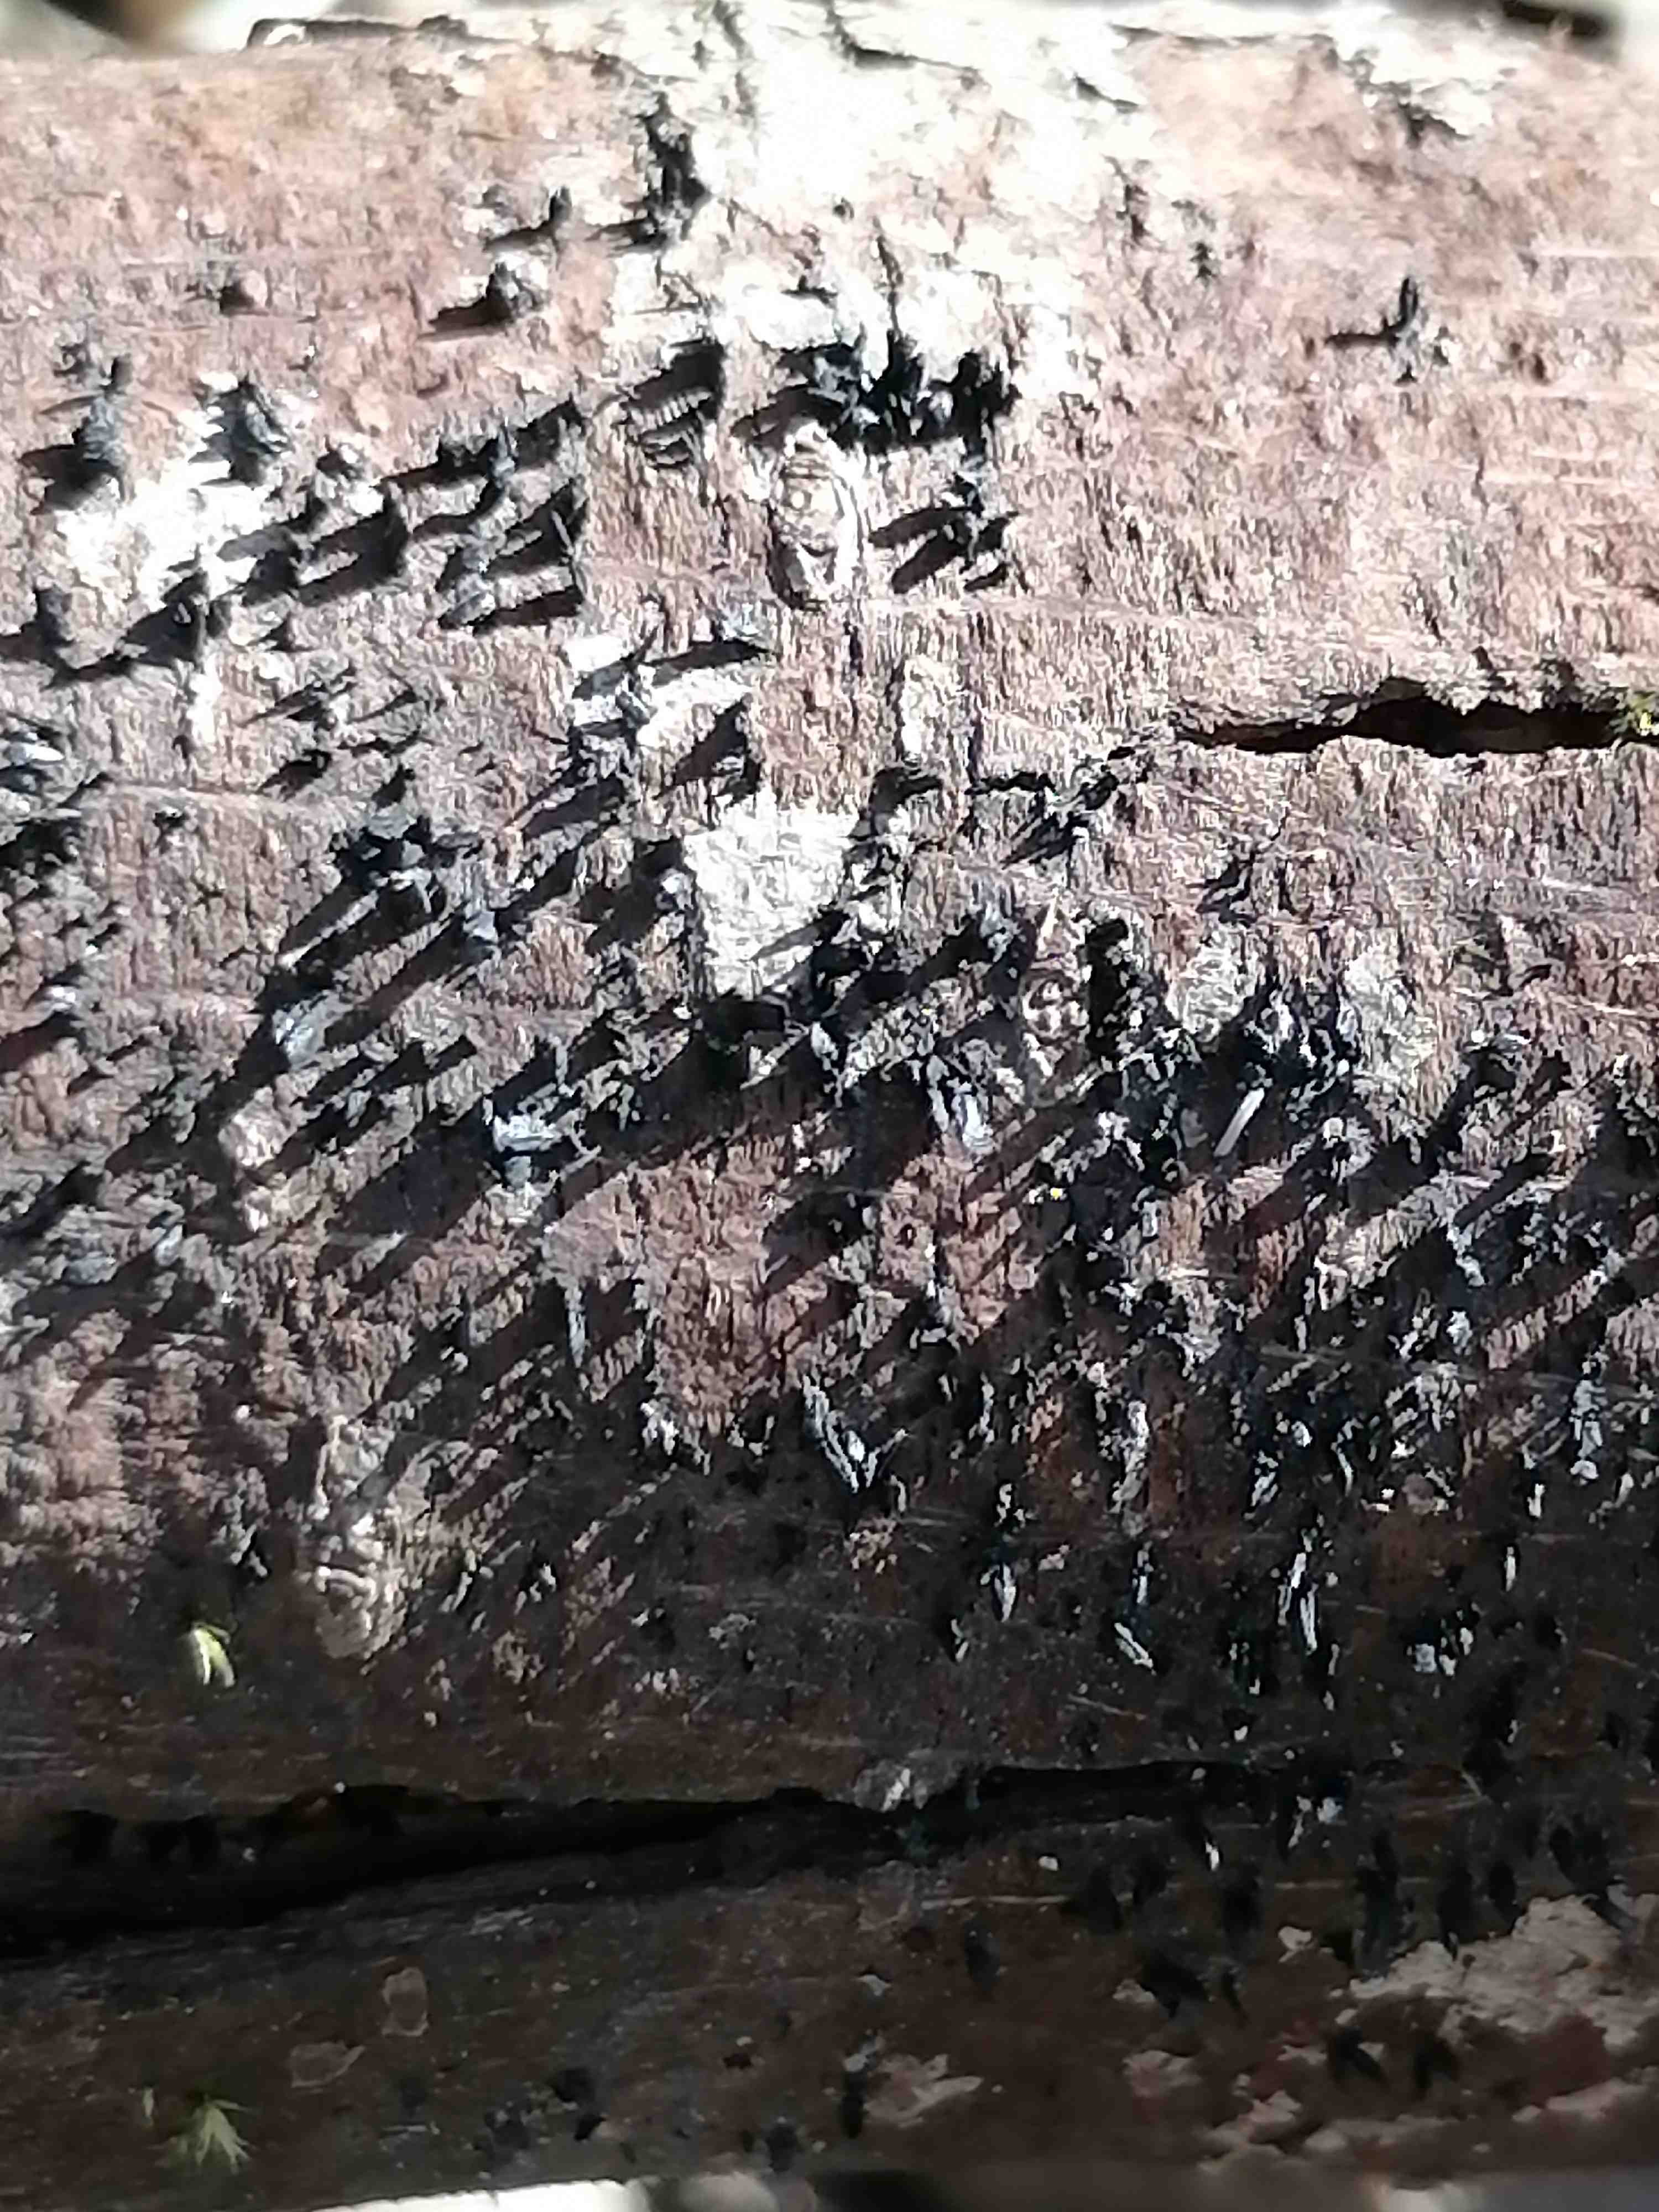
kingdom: Fungi
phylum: Ascomycota
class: Eurotiomycetes
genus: Glyphium
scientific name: Glyphium elatum
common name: kuløkse
